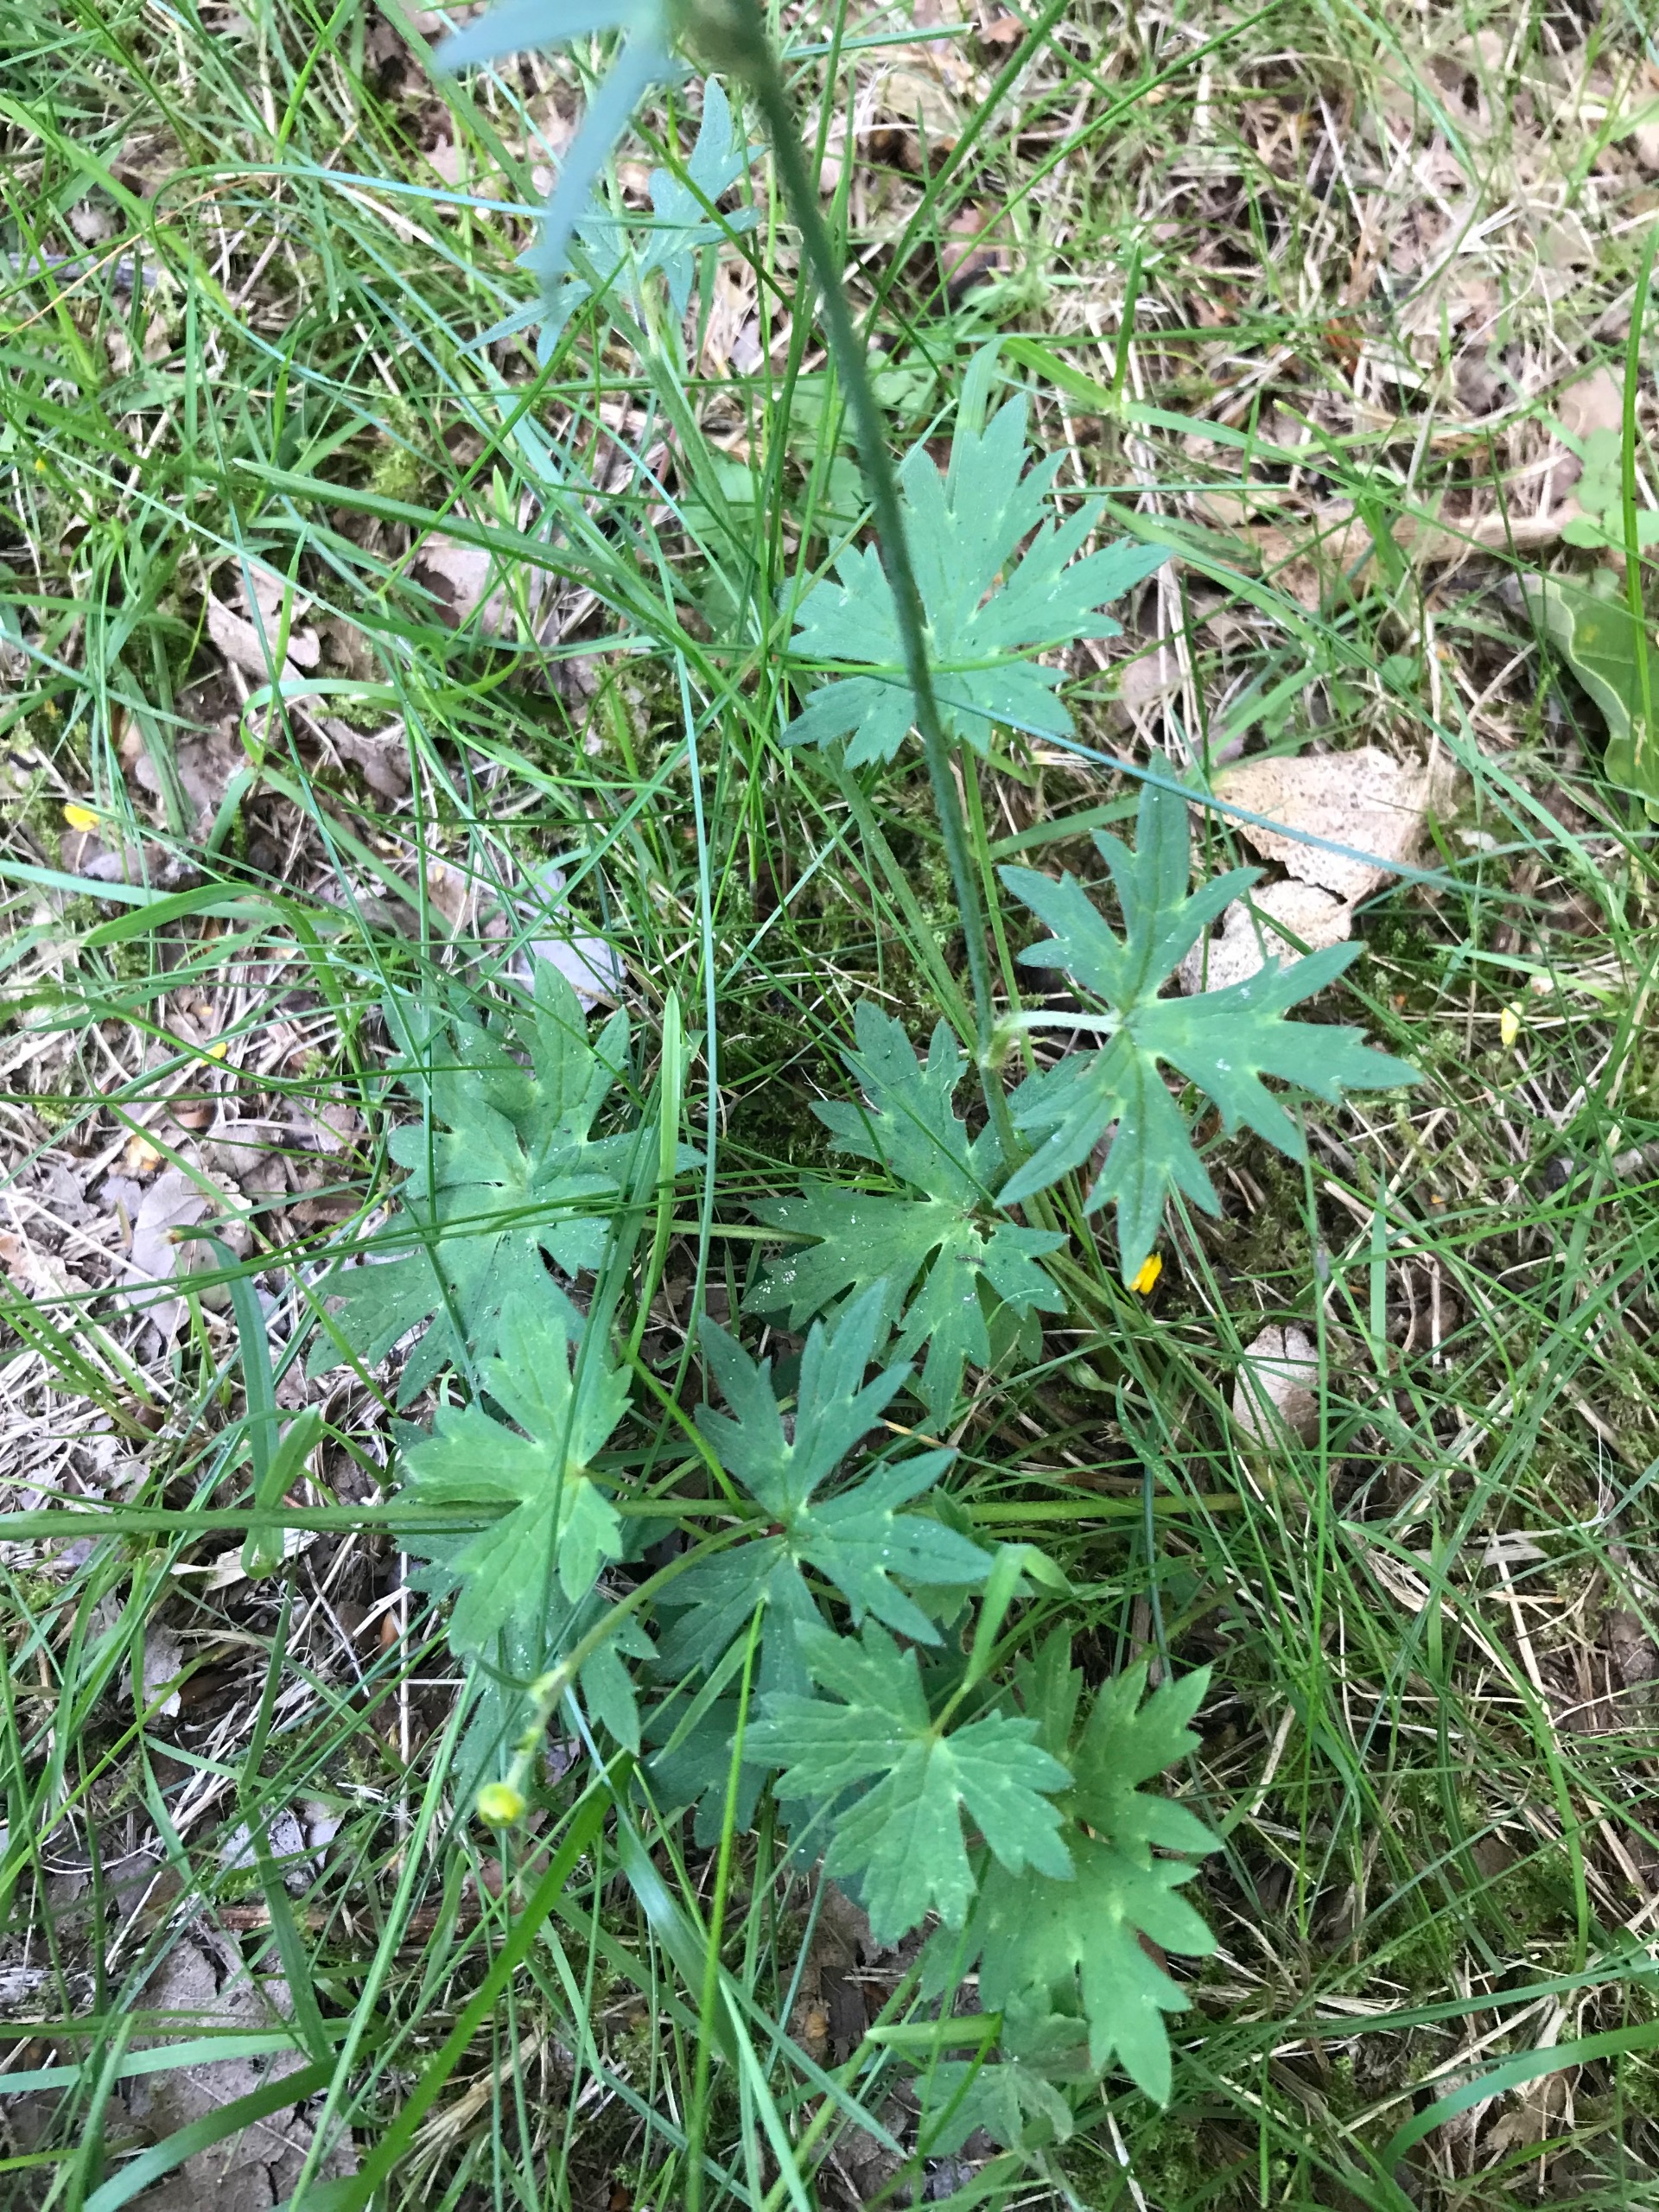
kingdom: Plantae
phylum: Tracheophyta
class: Magnoliopsida
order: Ranunculales
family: Ranunculaceae
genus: Ranunculus
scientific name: Ranunculus acris
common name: Bidende ranunkel
